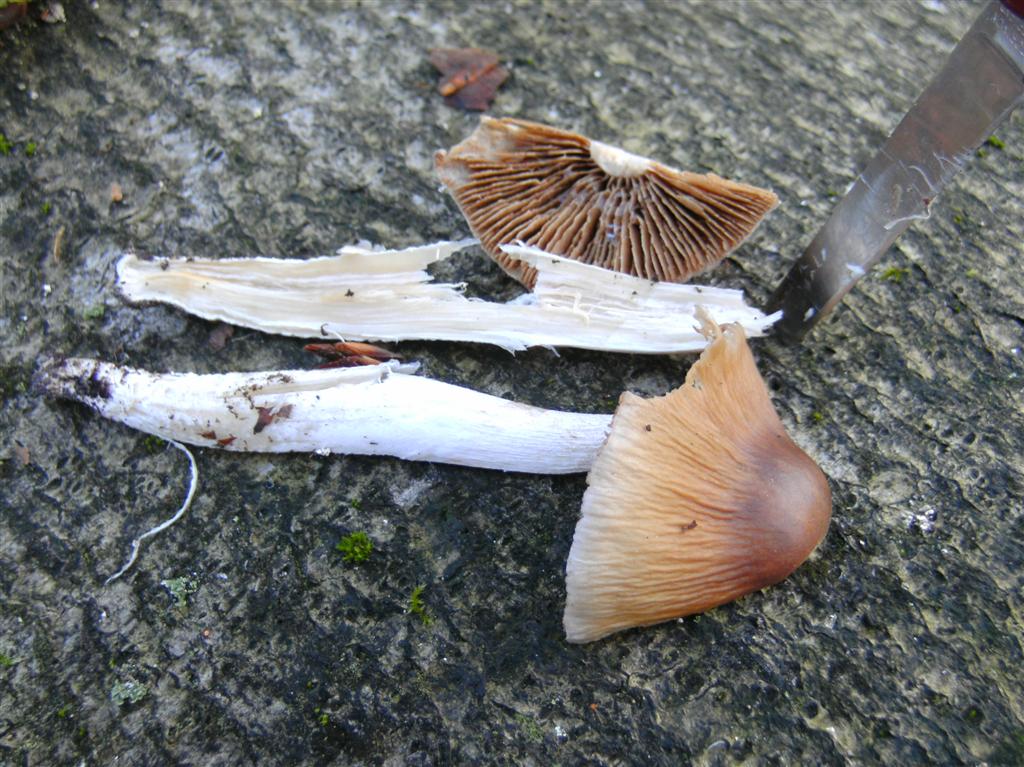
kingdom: Fungi
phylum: Basidiomycota
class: Agaricomycetes
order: Agaricales
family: Cortinariaceae
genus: Cortinarius
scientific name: Cortinarius elatior
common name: høj slørhat
